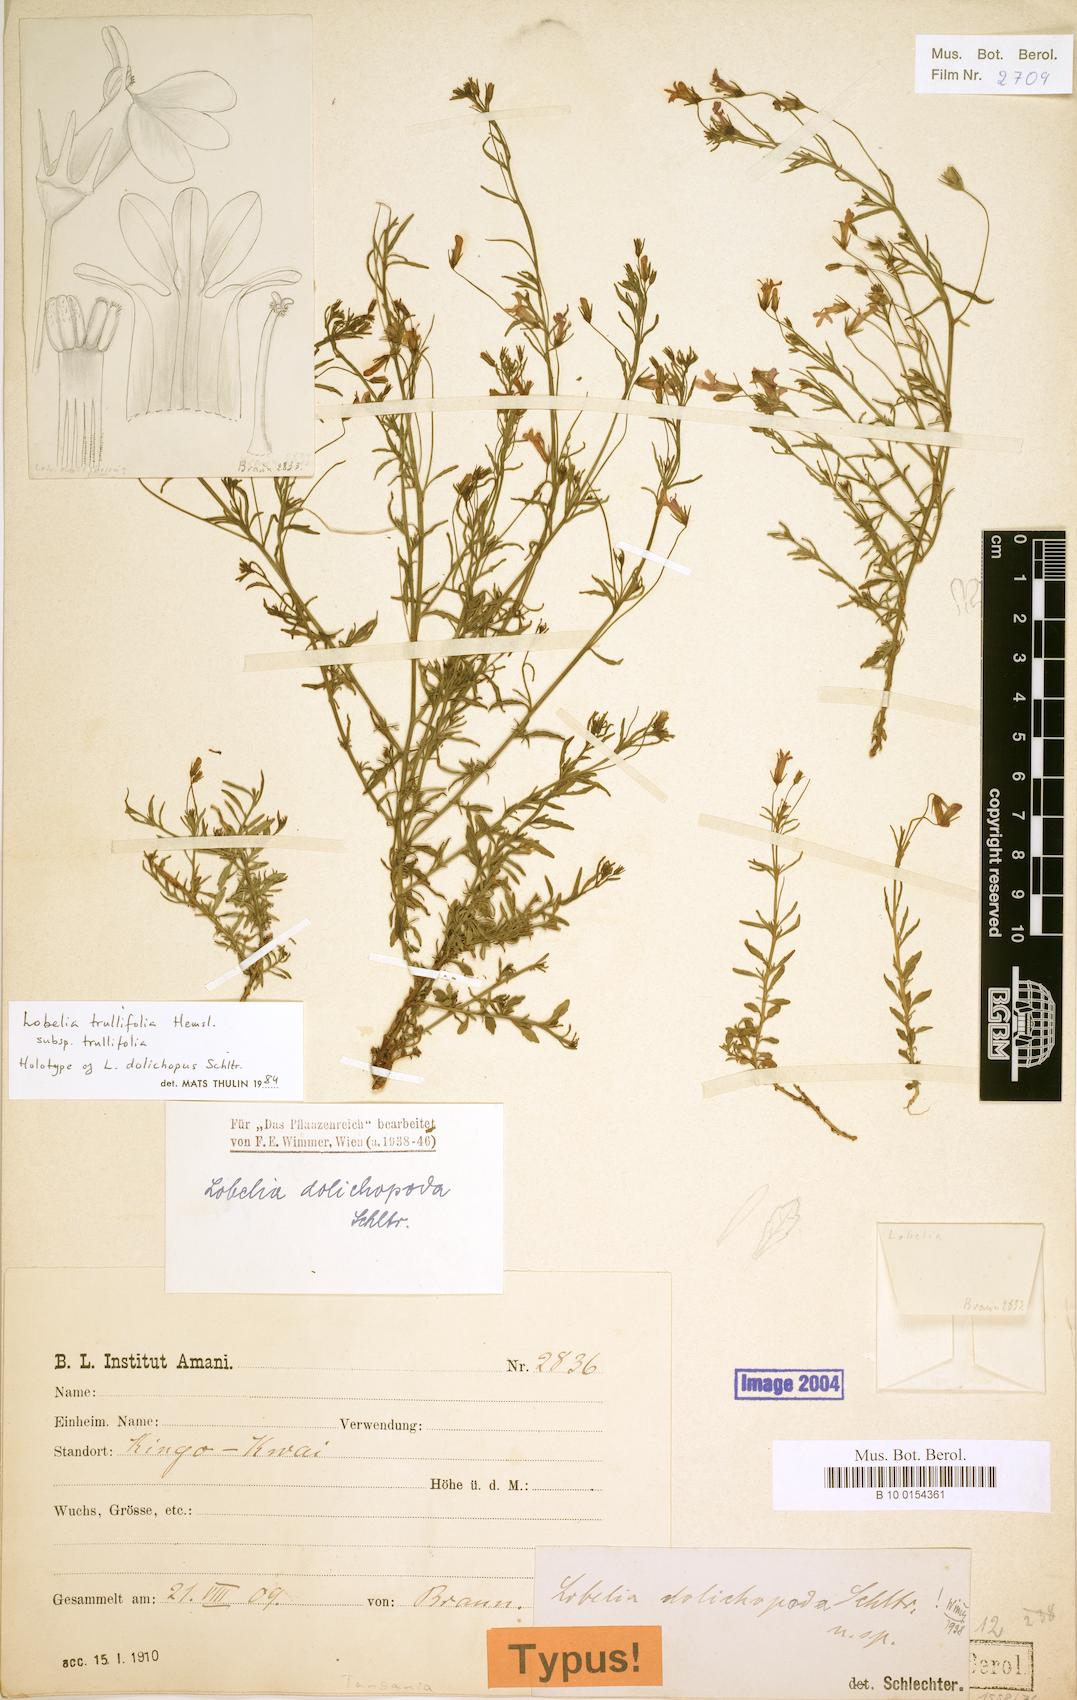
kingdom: Plantae
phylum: Tracheophyta
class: Magnoliopsida
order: Asterales
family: Campanulaceae
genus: Lobelia
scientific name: Lobelia trullifolia
